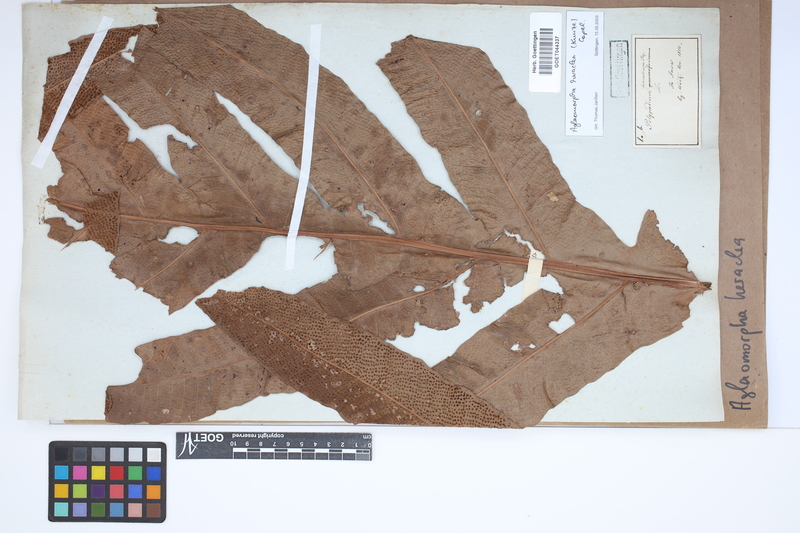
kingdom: Plantae
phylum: Tracheophyta
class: Polypodiopsida
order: Polypodiales
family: Polypodiaceae
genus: Drynaria
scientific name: Drynaria heraclea
